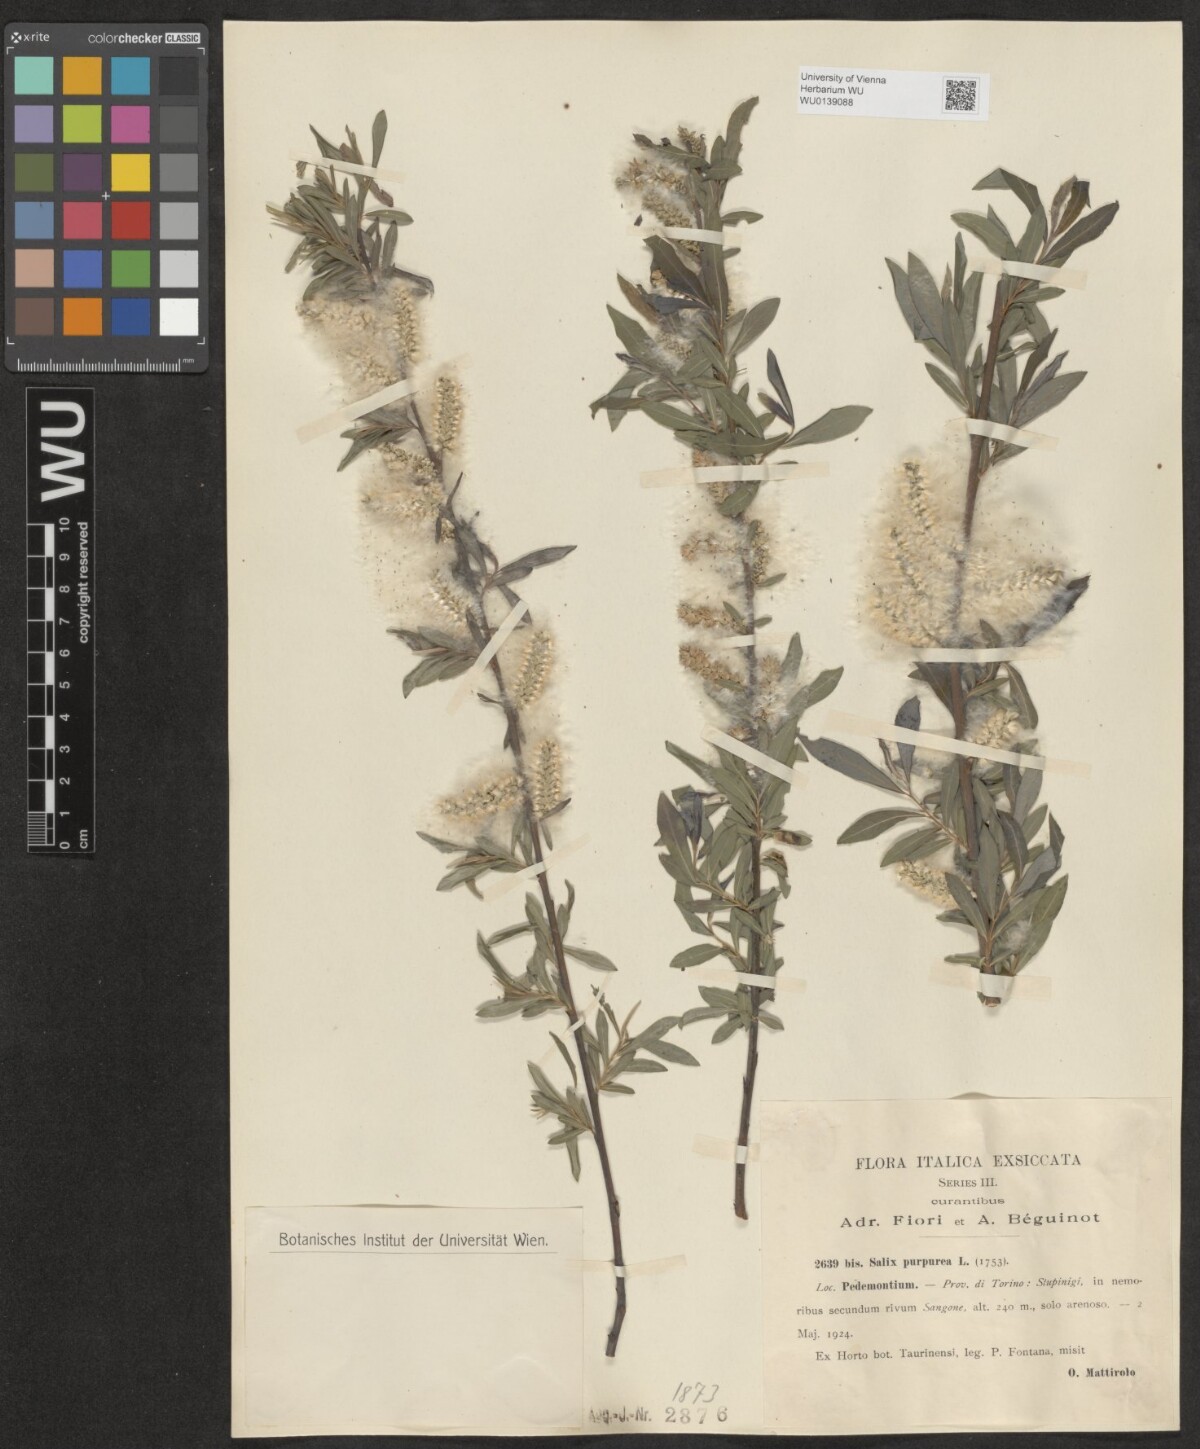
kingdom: Plantae
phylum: Tracheophyta
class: Magnoliopsida
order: Malpighiales
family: Salicaceae
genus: Salix
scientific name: Salix purpurea
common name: Purple willow
